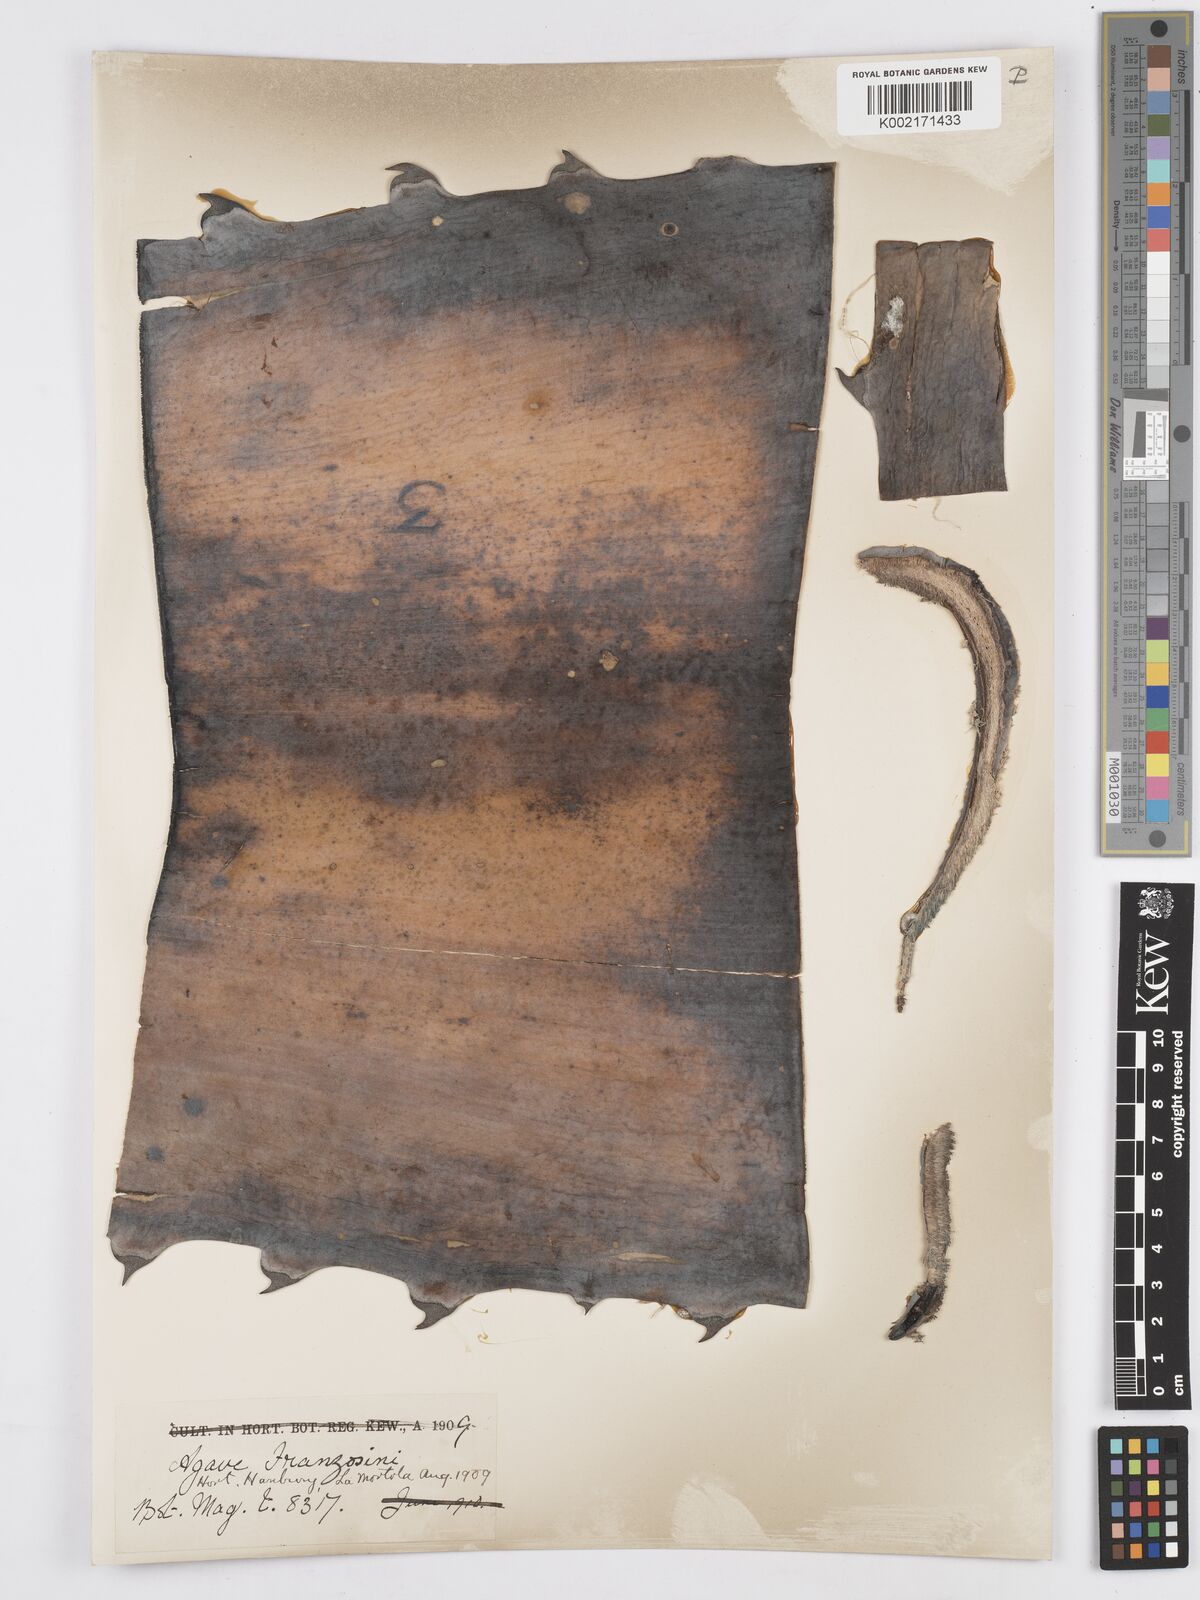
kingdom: Plantae
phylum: Tracheophyta
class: Liliopsida
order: Asparagales
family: Asparagaceae
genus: Agave
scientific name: Agave americana
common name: Centuryplant
